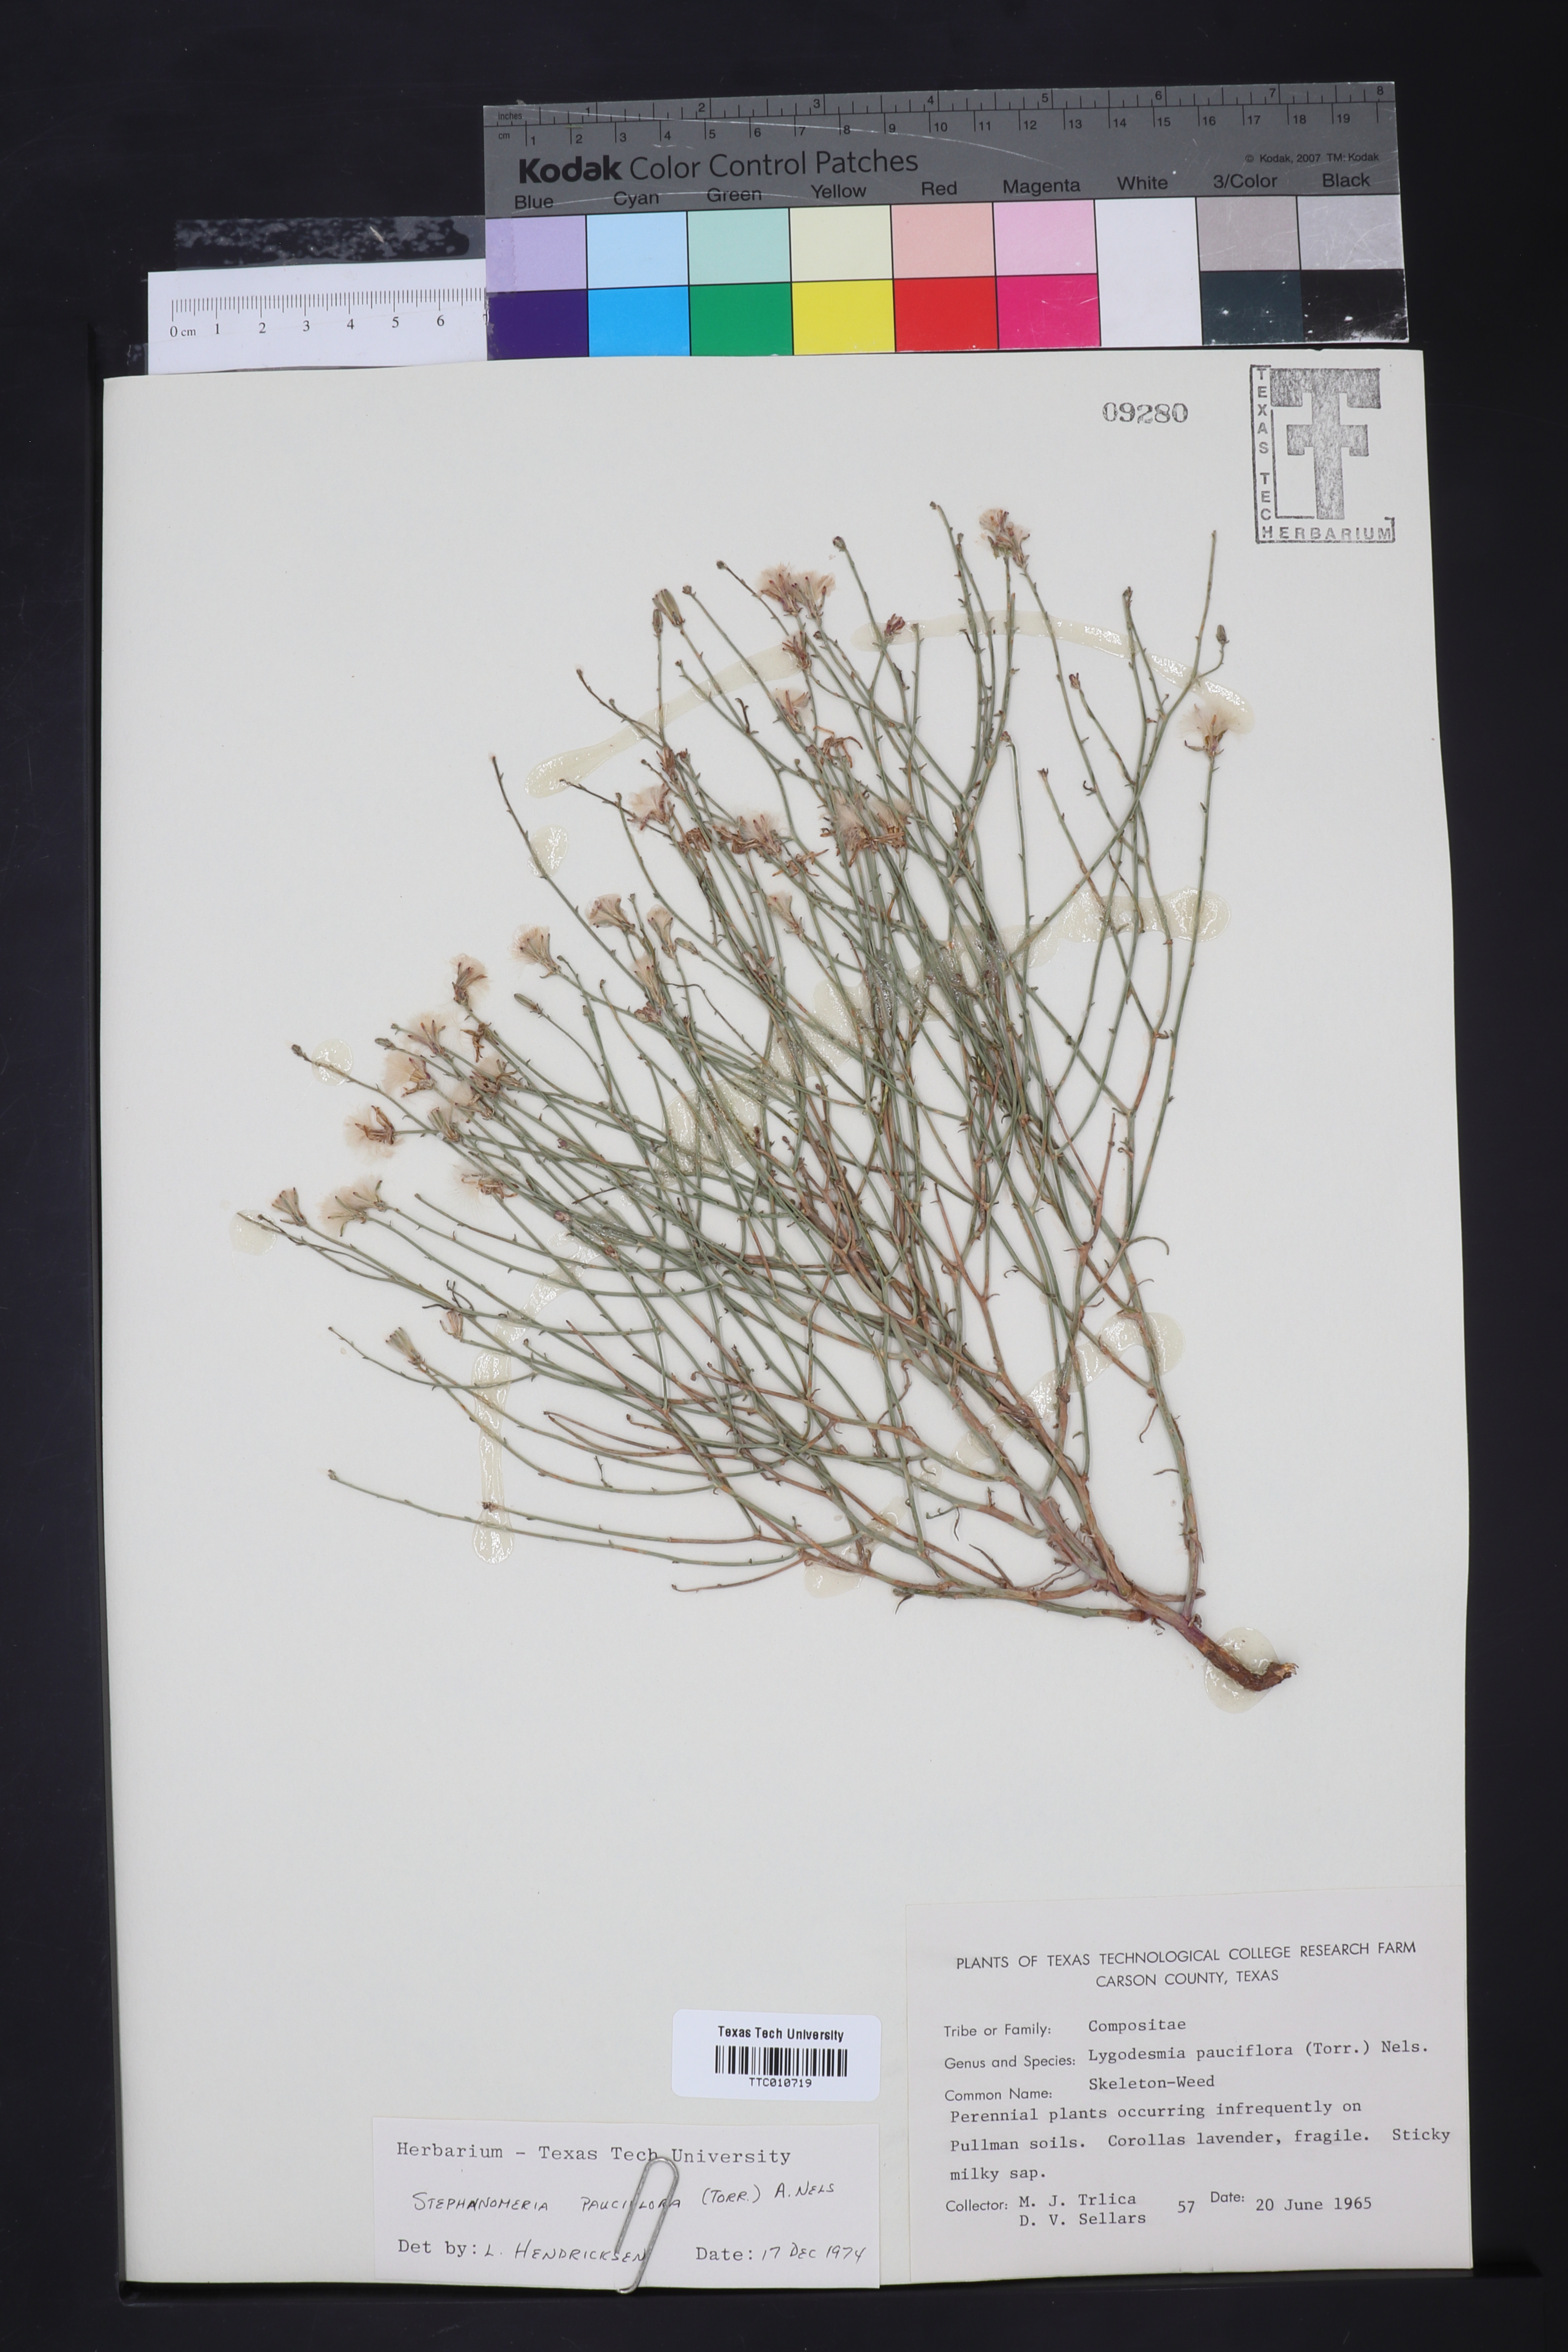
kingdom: Plantae
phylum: Tracheophyta
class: Magnoliopsida
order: Asterales
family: Asteraceae
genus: Stephanomeria
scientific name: Stephanomeria pauciflora
